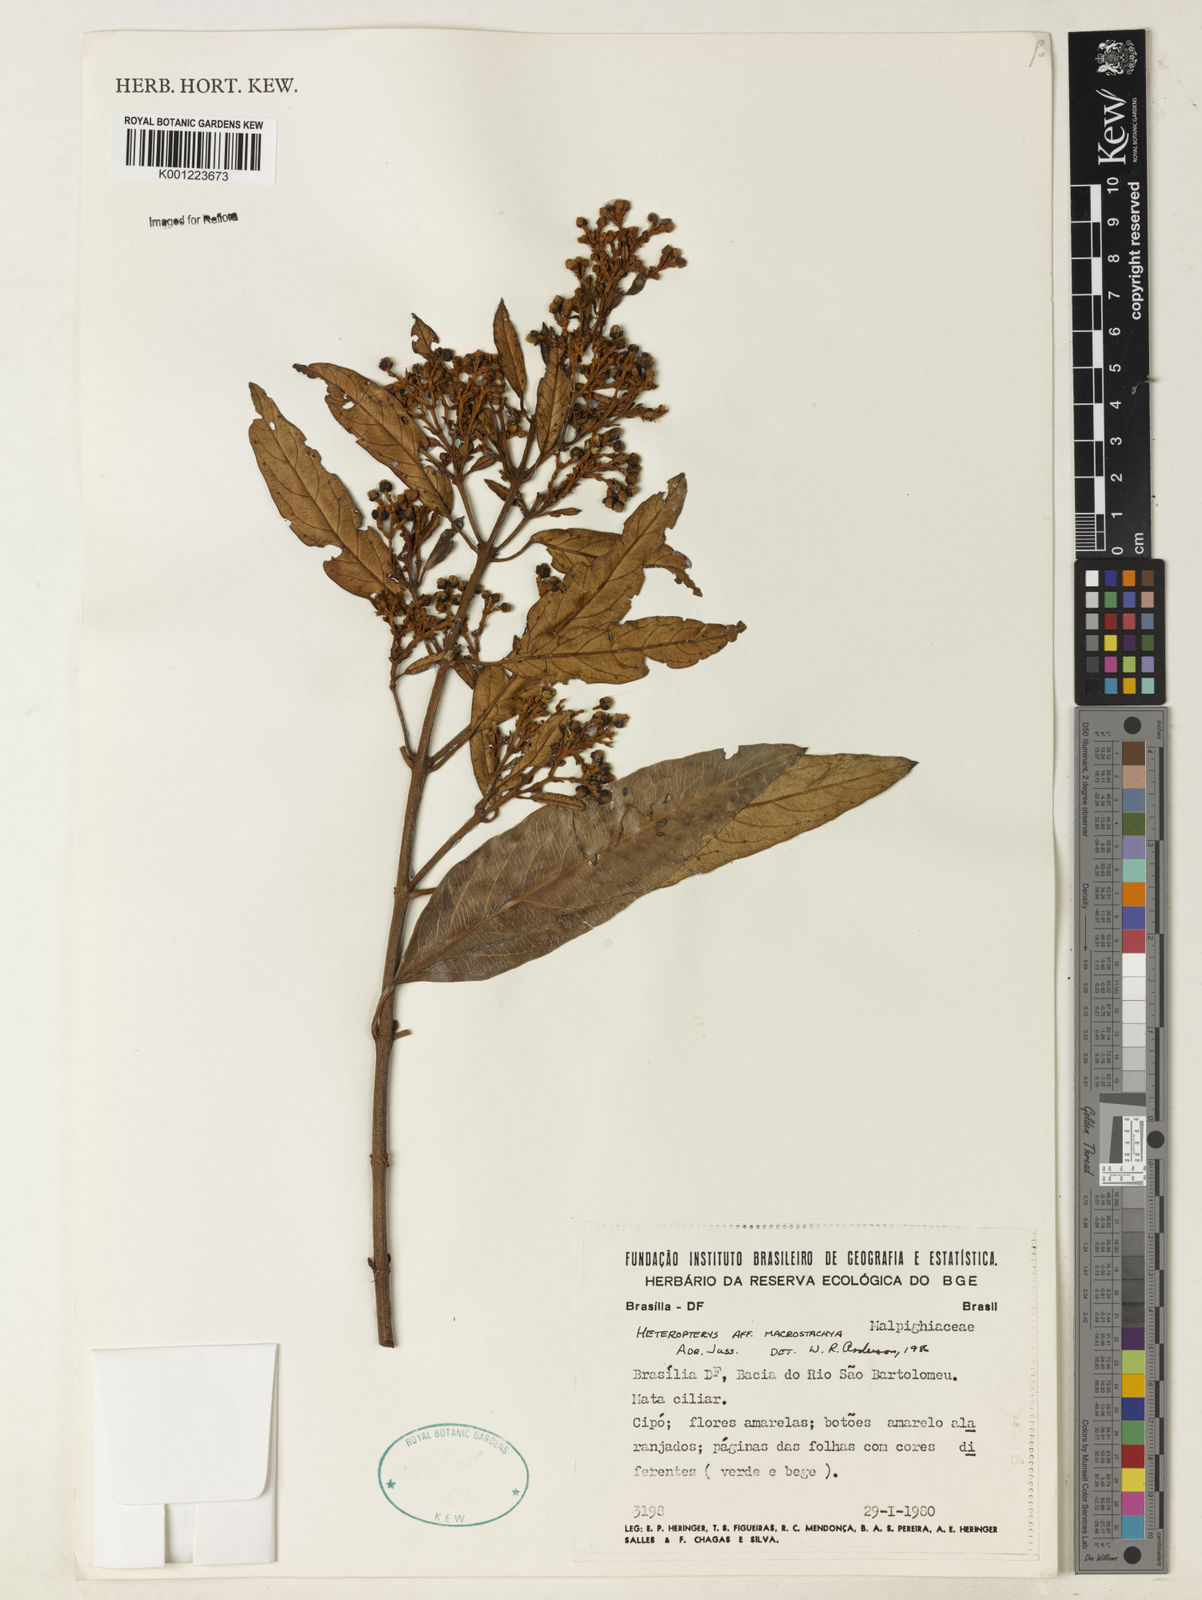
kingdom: Plantae
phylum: Tracheophyta
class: Magnoliopsida
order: Malpighiales
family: Malpighiaceae
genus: Heteropterys
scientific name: Heteropterys macrostachya
